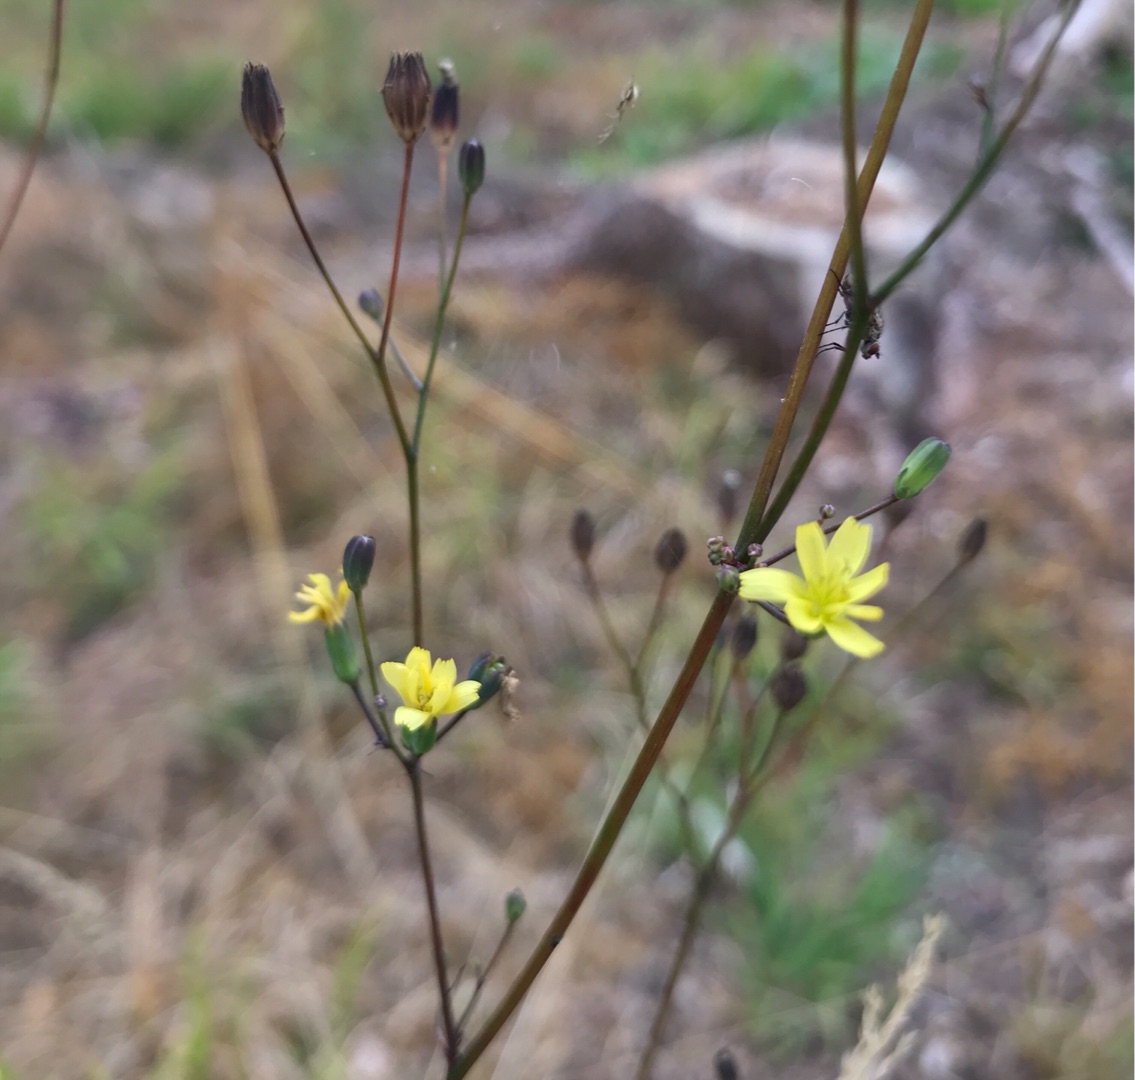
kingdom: Plantae
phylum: Tracheophyta
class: Magnoliopsida
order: Asterales
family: Asteraceae
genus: Lapsana
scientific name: Lapsana communis
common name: Haremad
